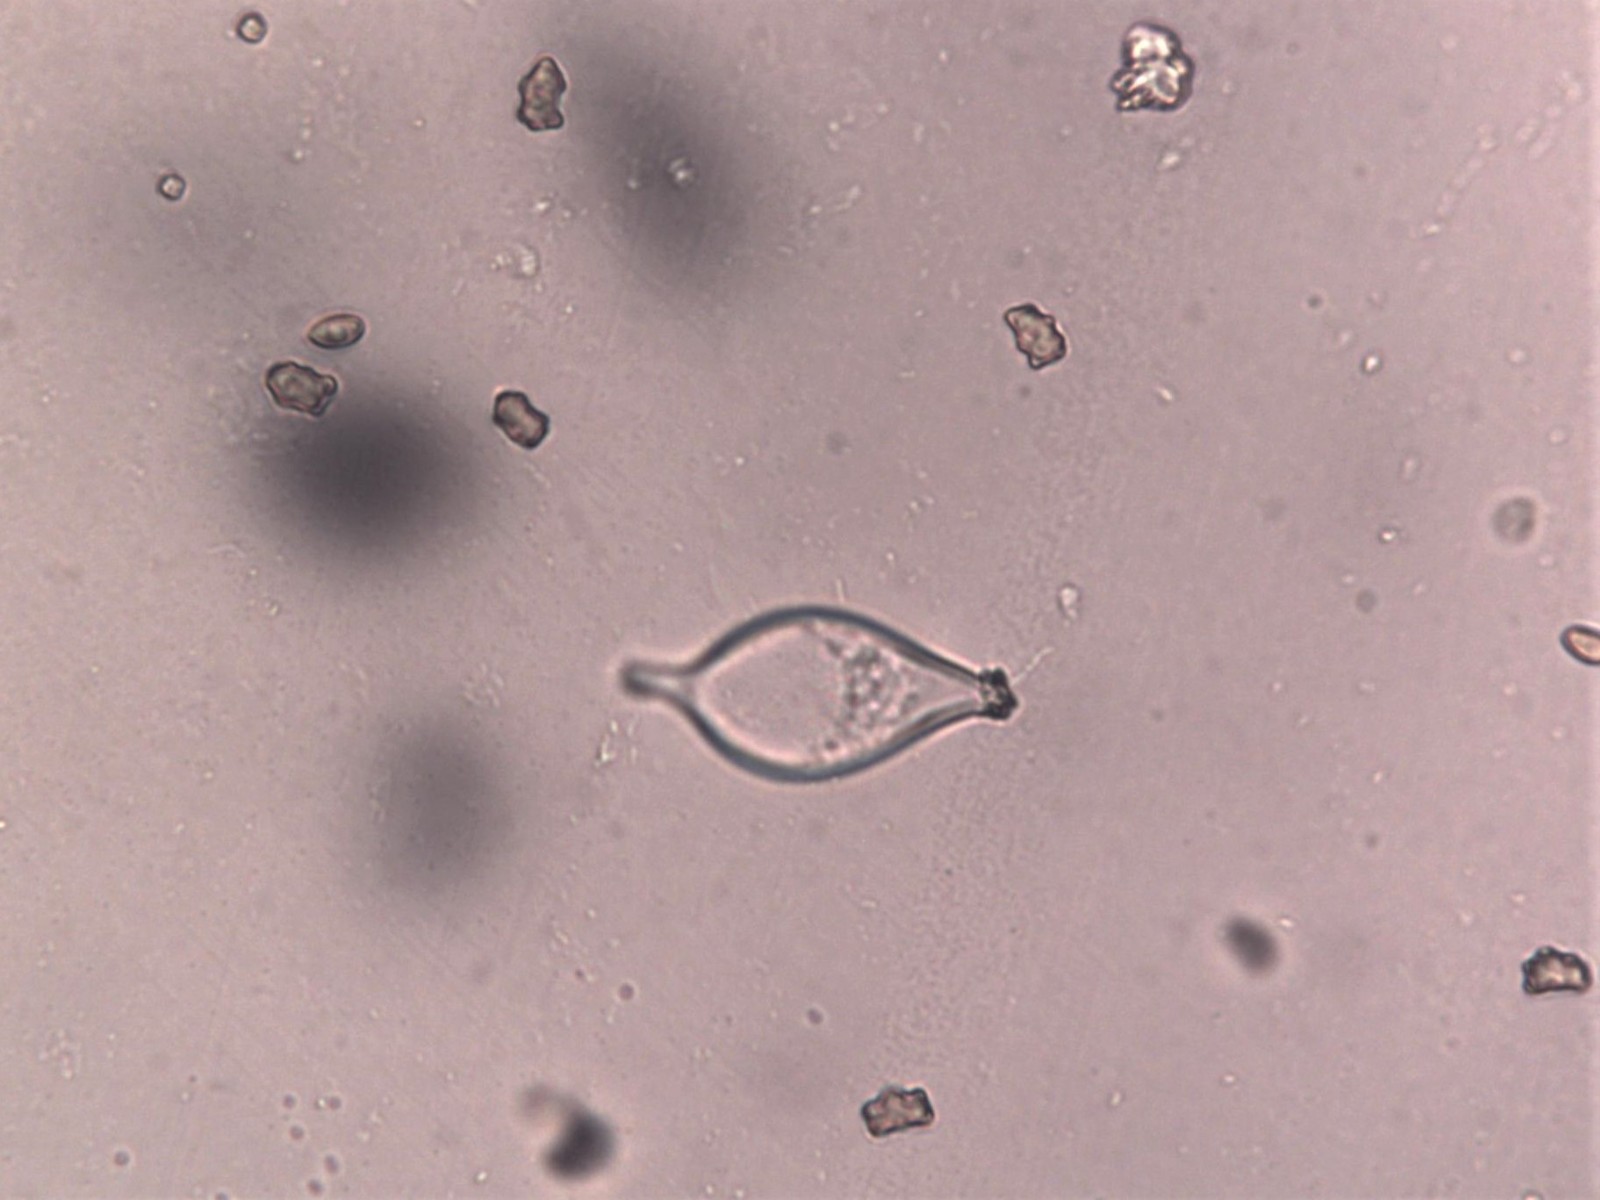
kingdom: Fungi
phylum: Basidiomycota
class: Agaricomycetes
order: Agaricales
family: Inocybaceae
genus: Inocybe
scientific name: Inocybe curvipes
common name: plæne-trævlhat
